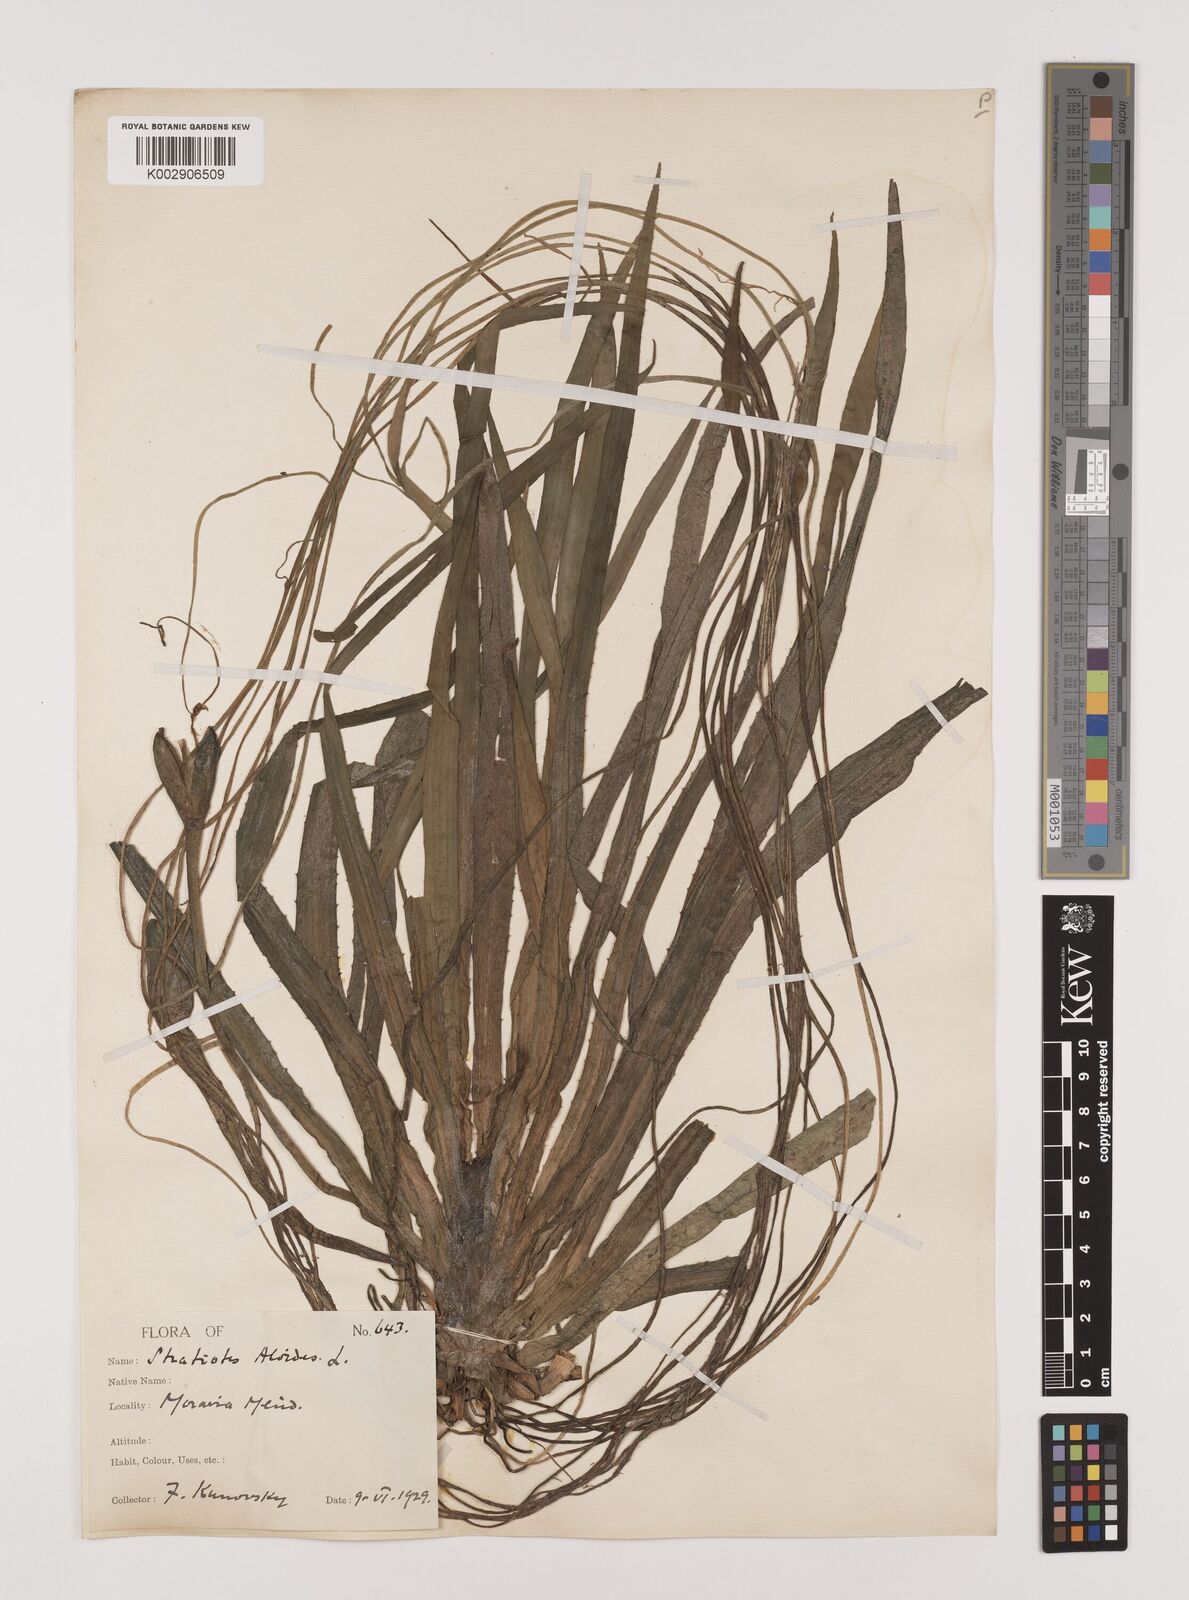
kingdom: Plantae
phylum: Tracheophyta
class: Liliopsida
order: Alismatales
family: Hydrocharitaceae
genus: Stratiotes
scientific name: Stratiotes aloides
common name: Water-soldier
